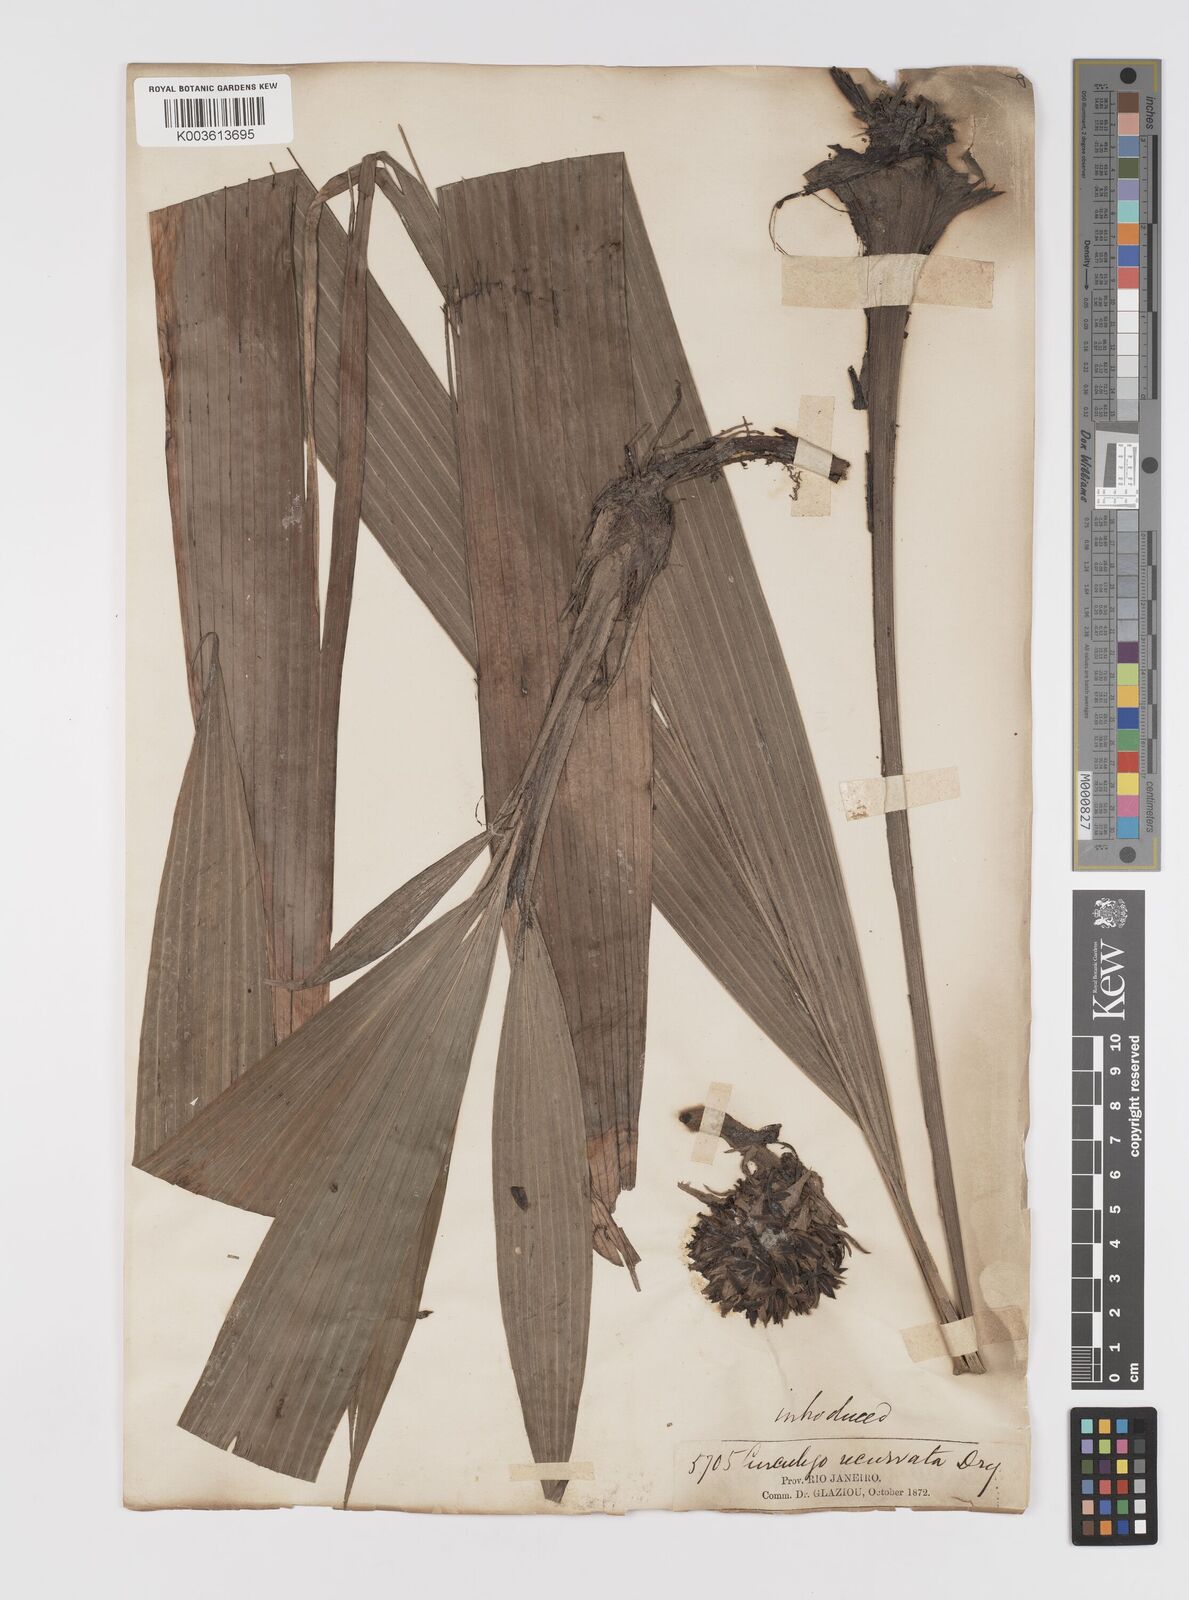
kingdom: Plantae
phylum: Tracheophyta
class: Liliopsida
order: Asparagales
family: Hypoxidaceae
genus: Curculigo
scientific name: Curculigo capitulata
